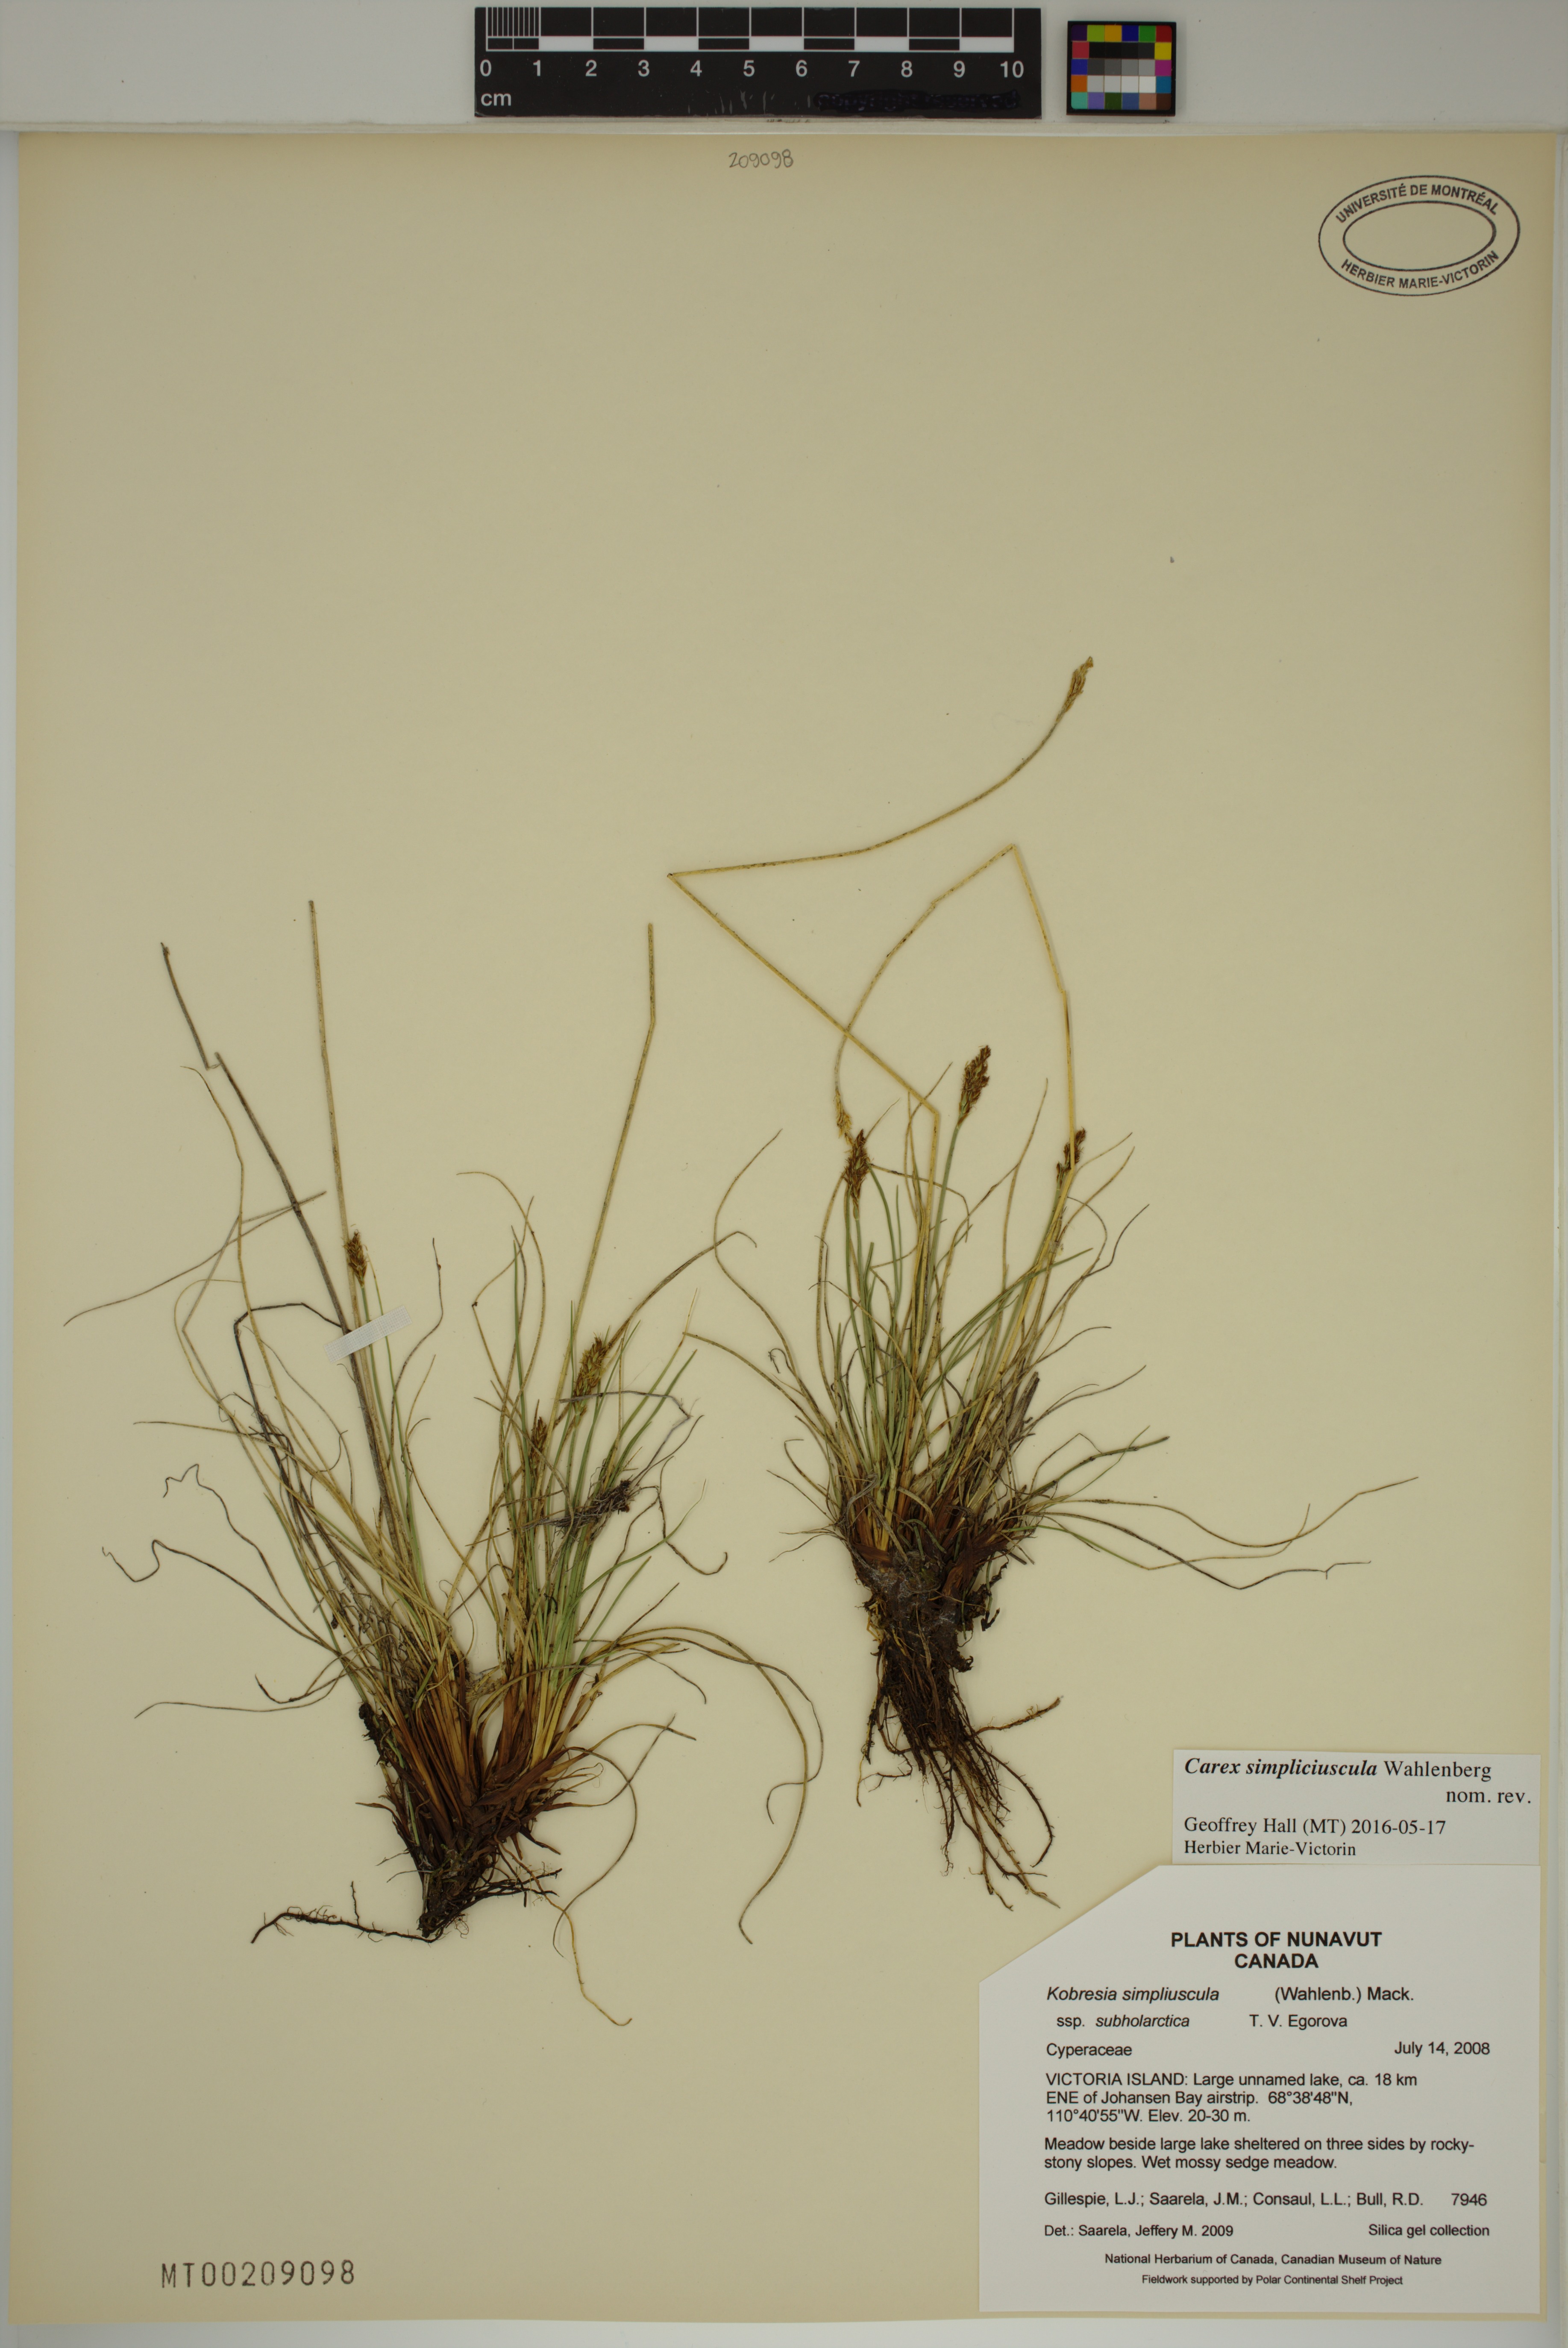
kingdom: Plantae
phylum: Tracheophyta
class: Liliopsida
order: Poales
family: Cyperaceae
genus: Carex
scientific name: Carex simpliciuscula
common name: Simple bog sedge
